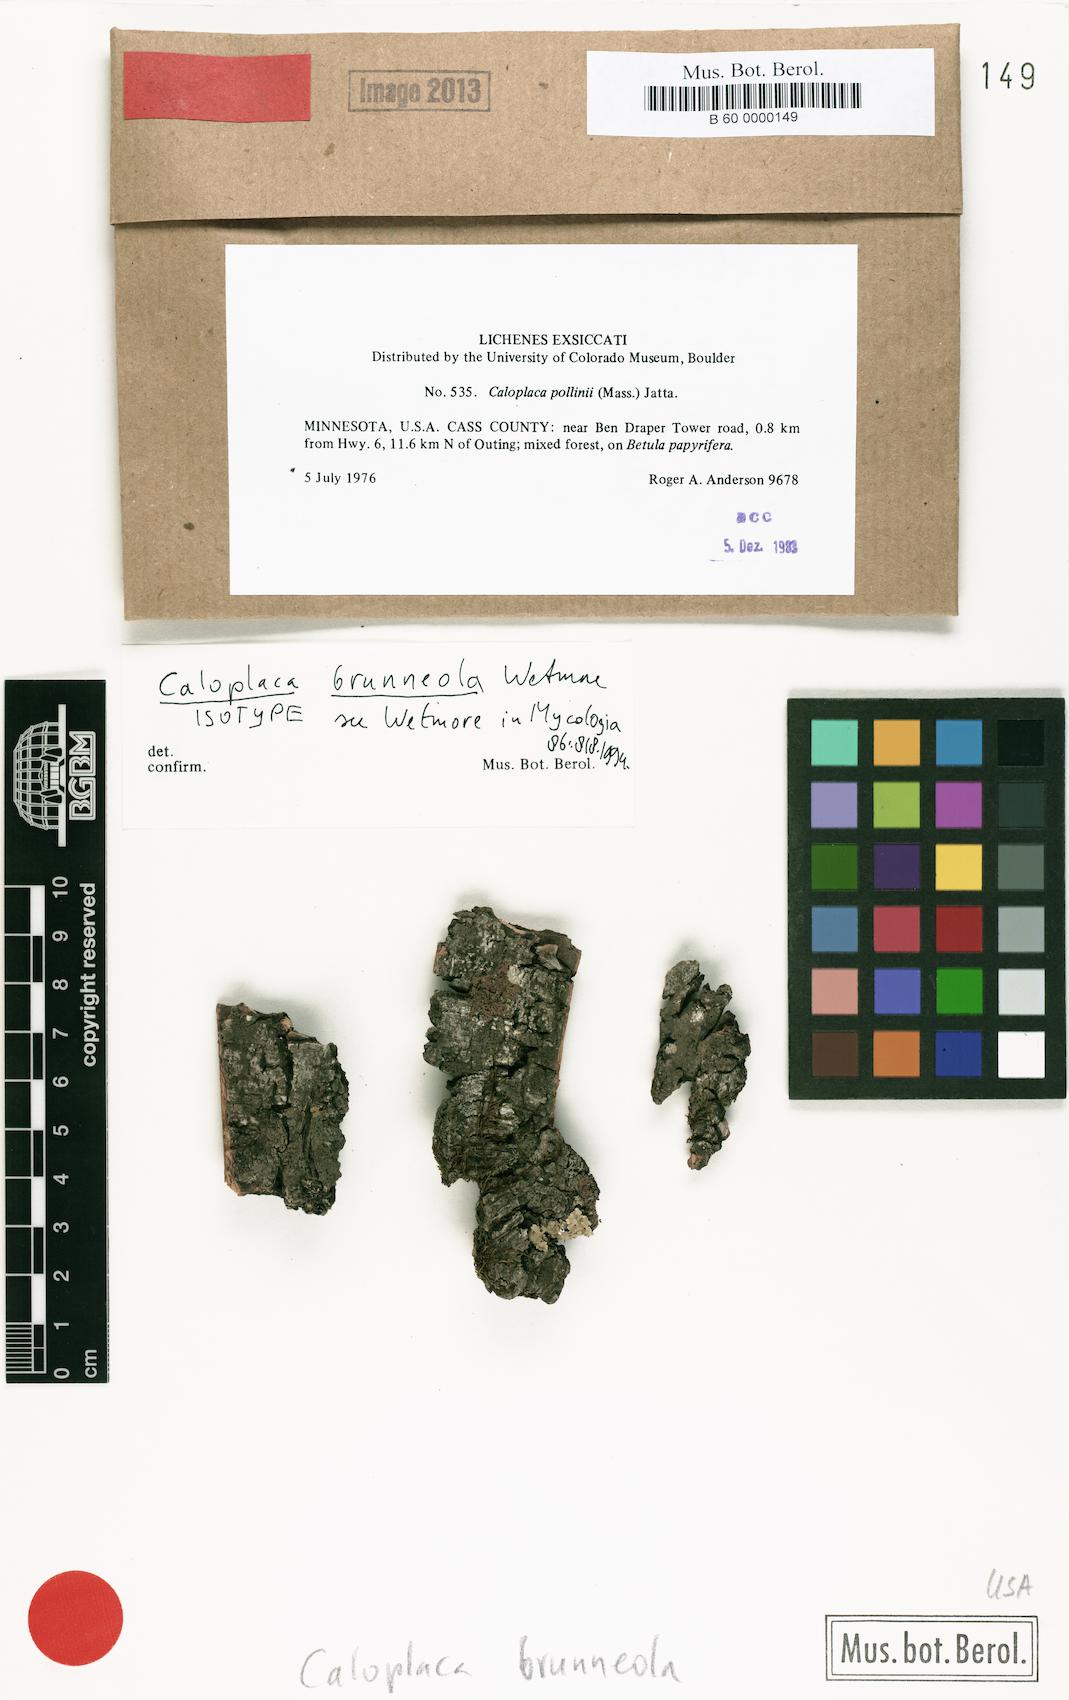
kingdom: Fungi
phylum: Ascomycota
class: Lecanoromycetes
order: Teloschistales
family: Teloschistaceae
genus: Caloplaca
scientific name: Caloplaca
